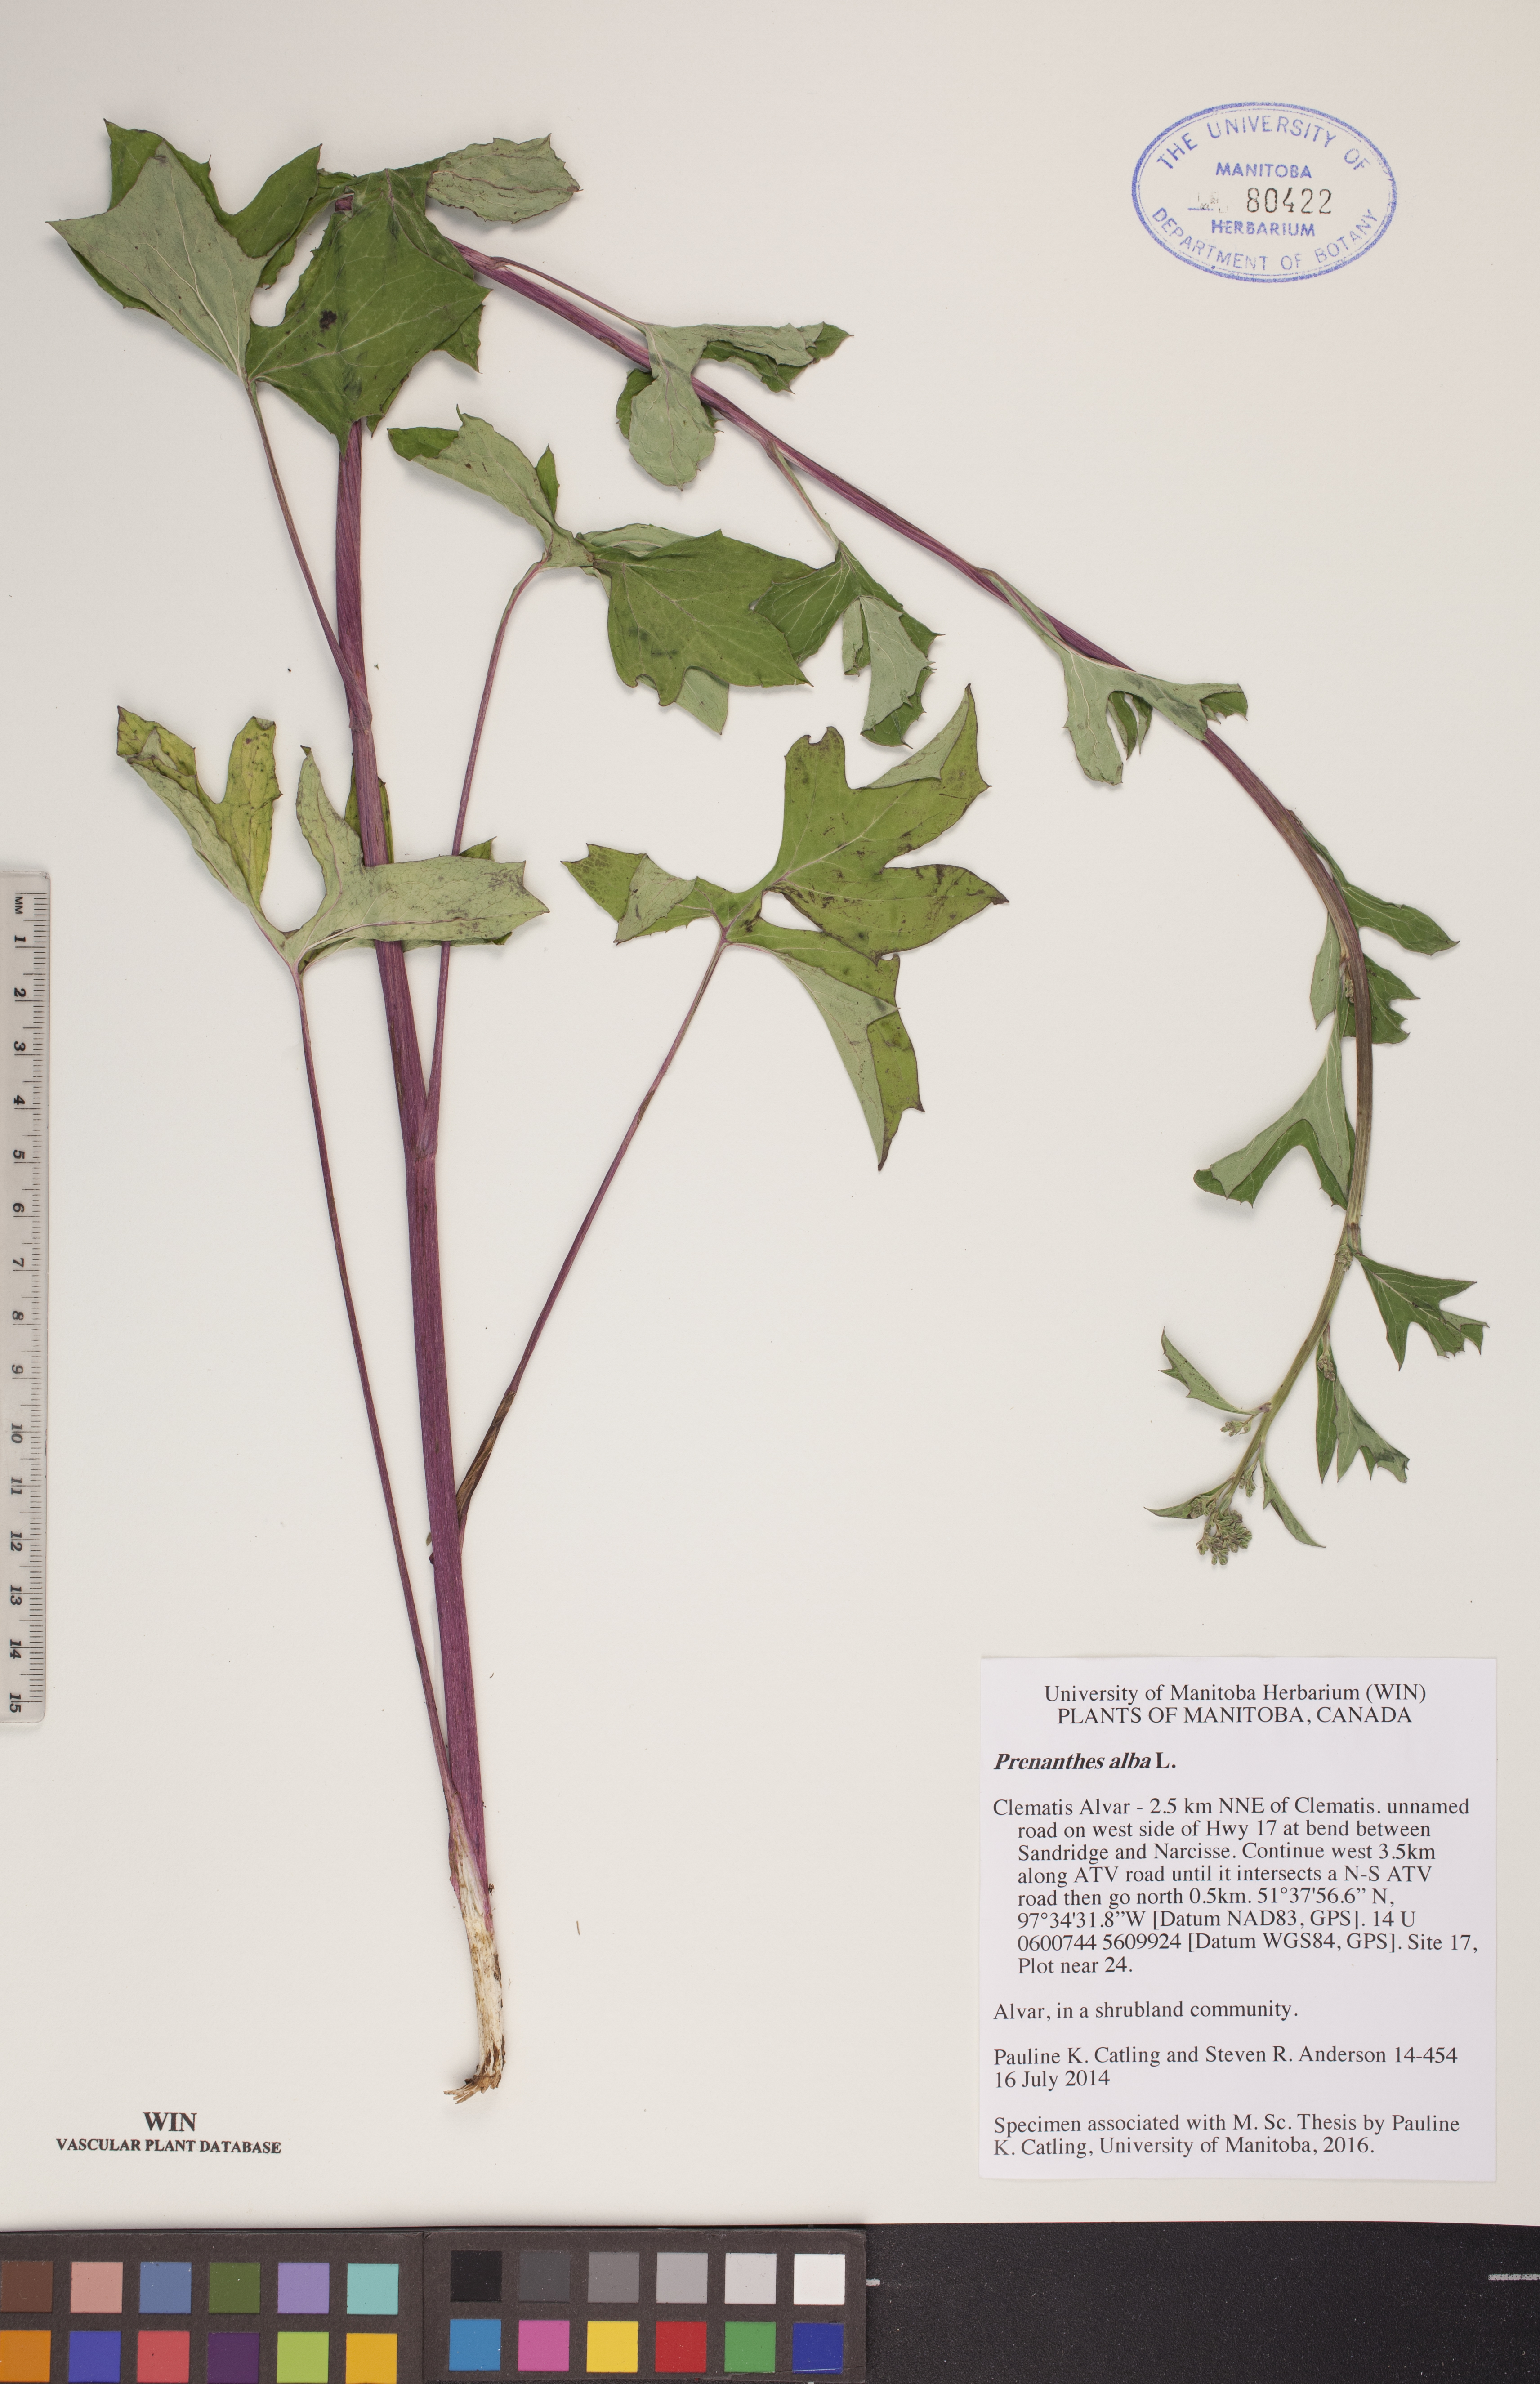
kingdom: Plantae
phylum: Tracheophyta
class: Magnoliopsida
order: Asterales
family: Asteraceae
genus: Nabalus
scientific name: Nabalus albus
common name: White rattlesnakeroot
